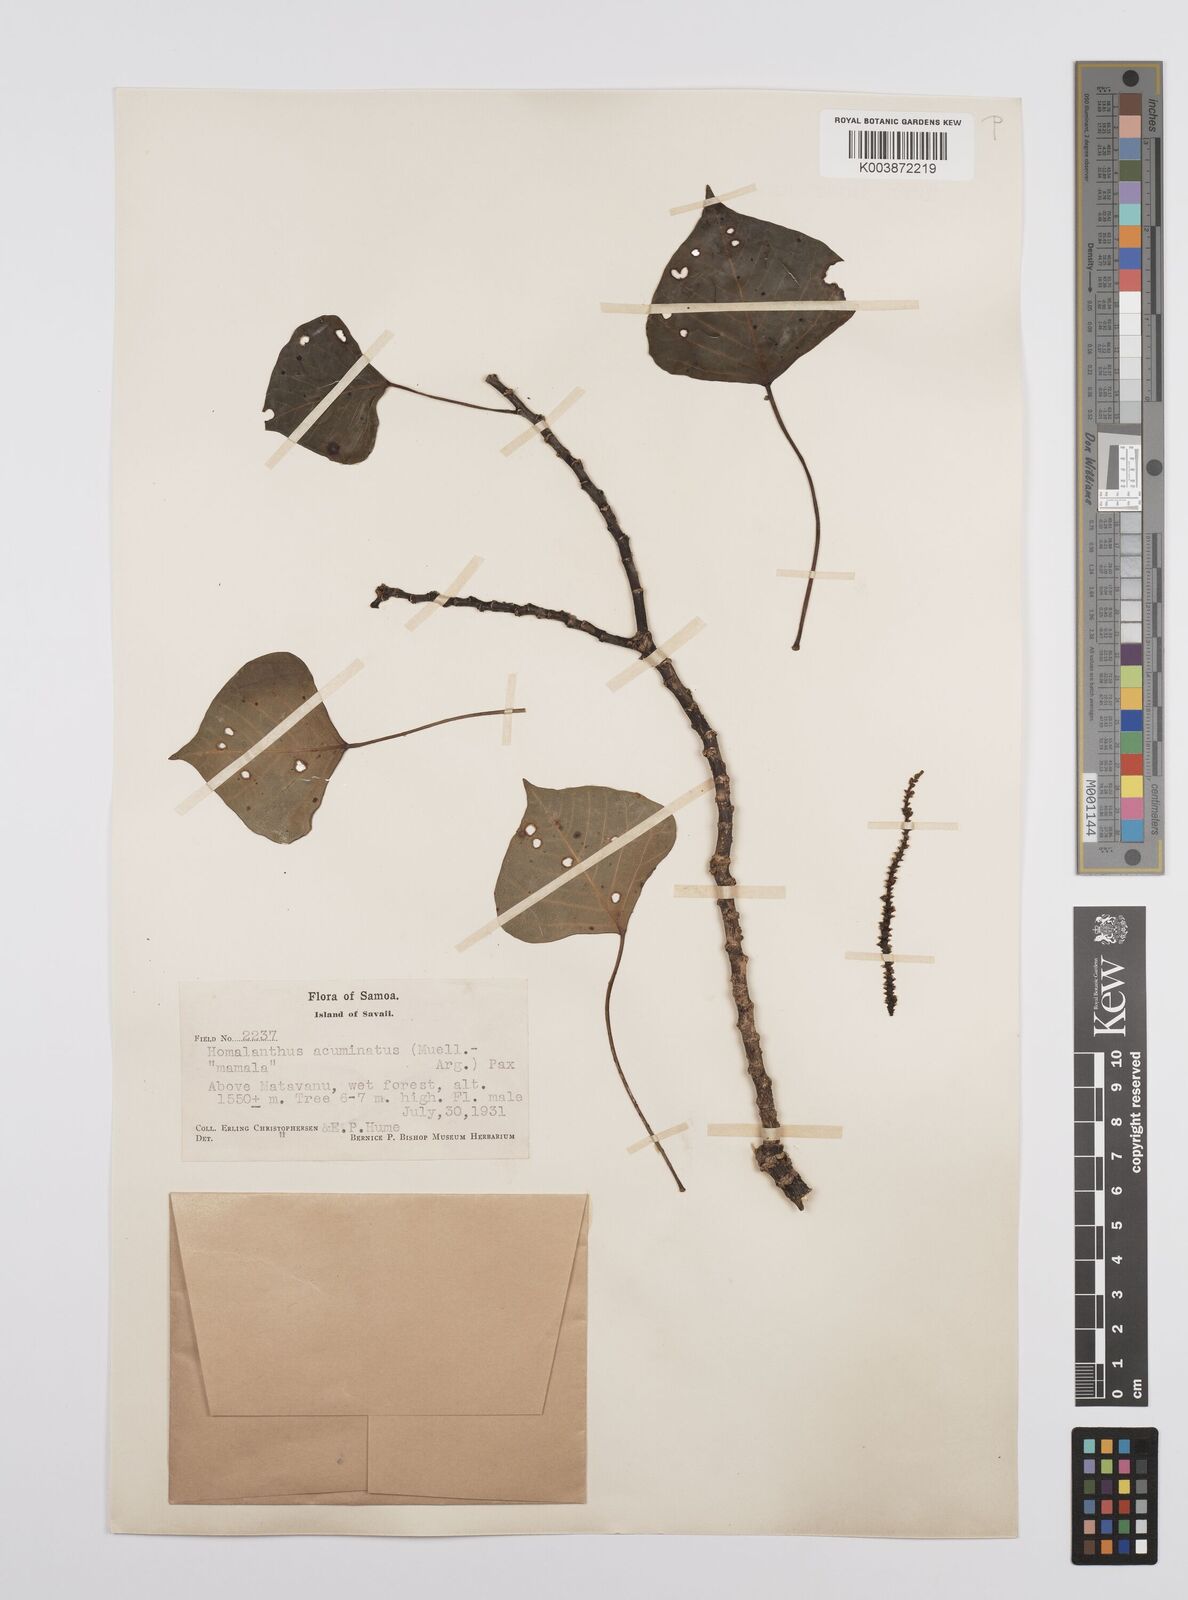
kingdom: Plantae
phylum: Tracheophyta
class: Magnoliopsida
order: Malpighiales
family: Euphorbiaceae
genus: Homalanthus
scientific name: Homalanthus acuminatus
